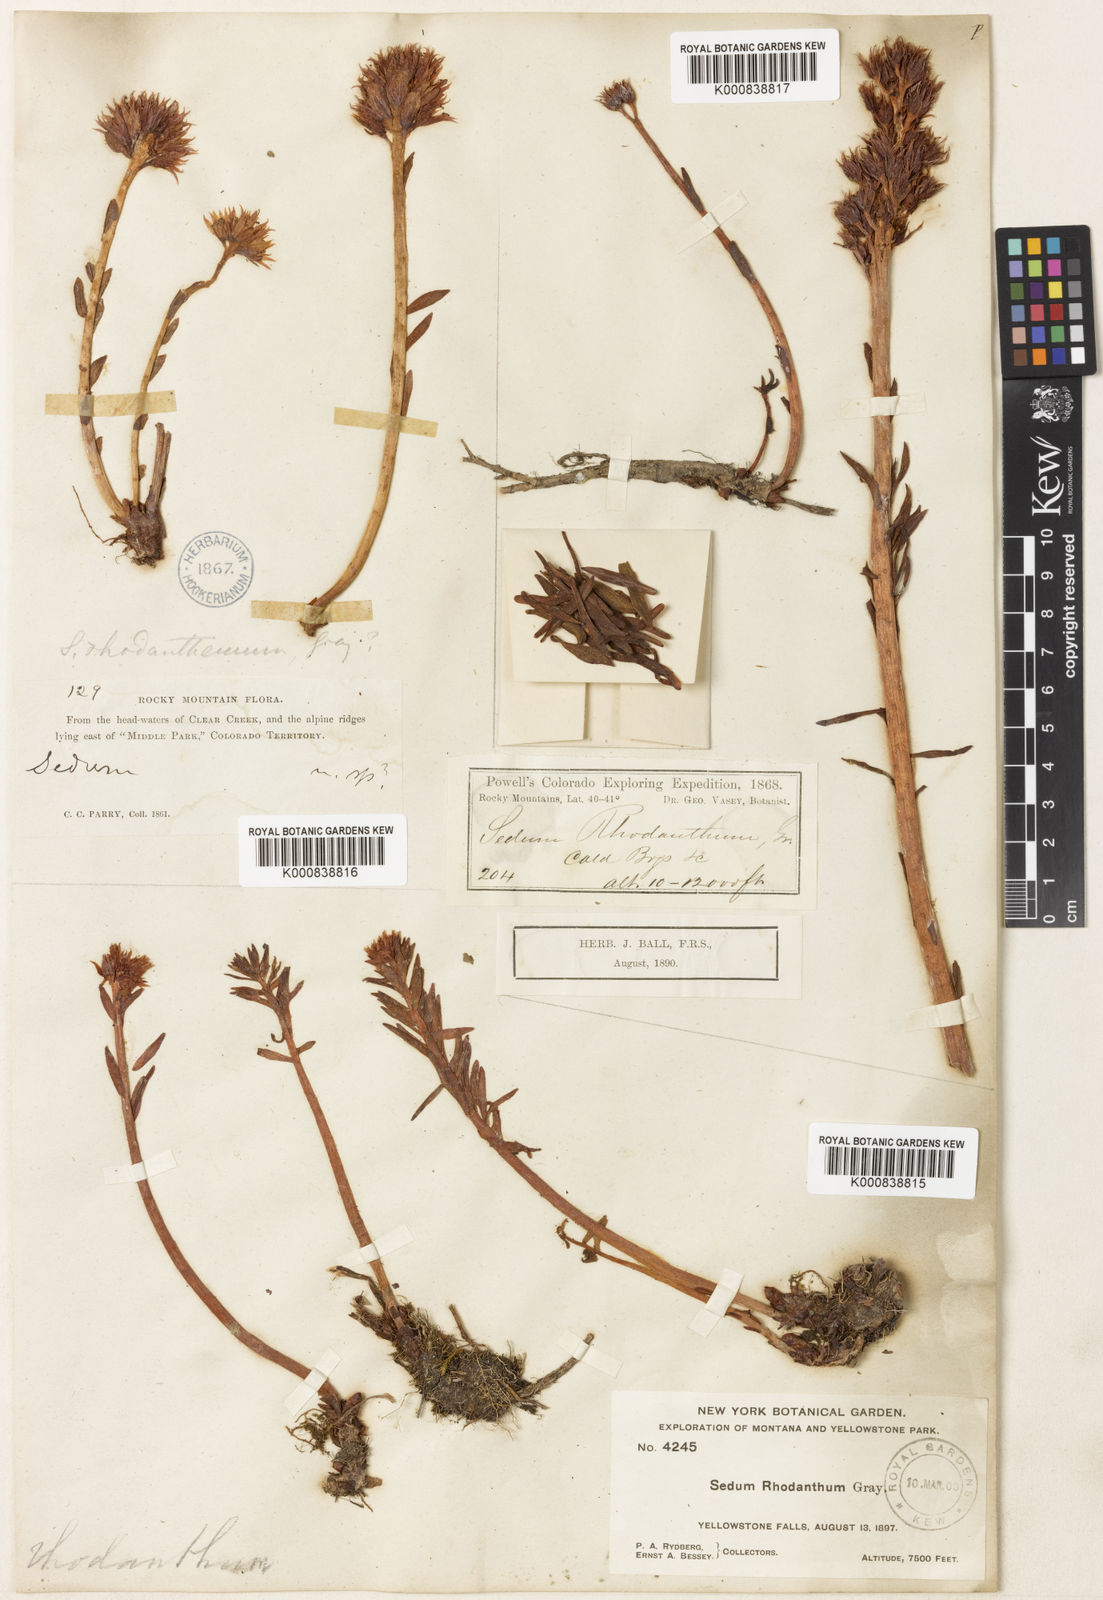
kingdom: Plantae
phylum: Tracheophyta
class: Magnoliopsida
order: Saxifragales
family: Crassulaceae
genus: Rhodiola
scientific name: Rhodiola rhodantha
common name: Red orpine
